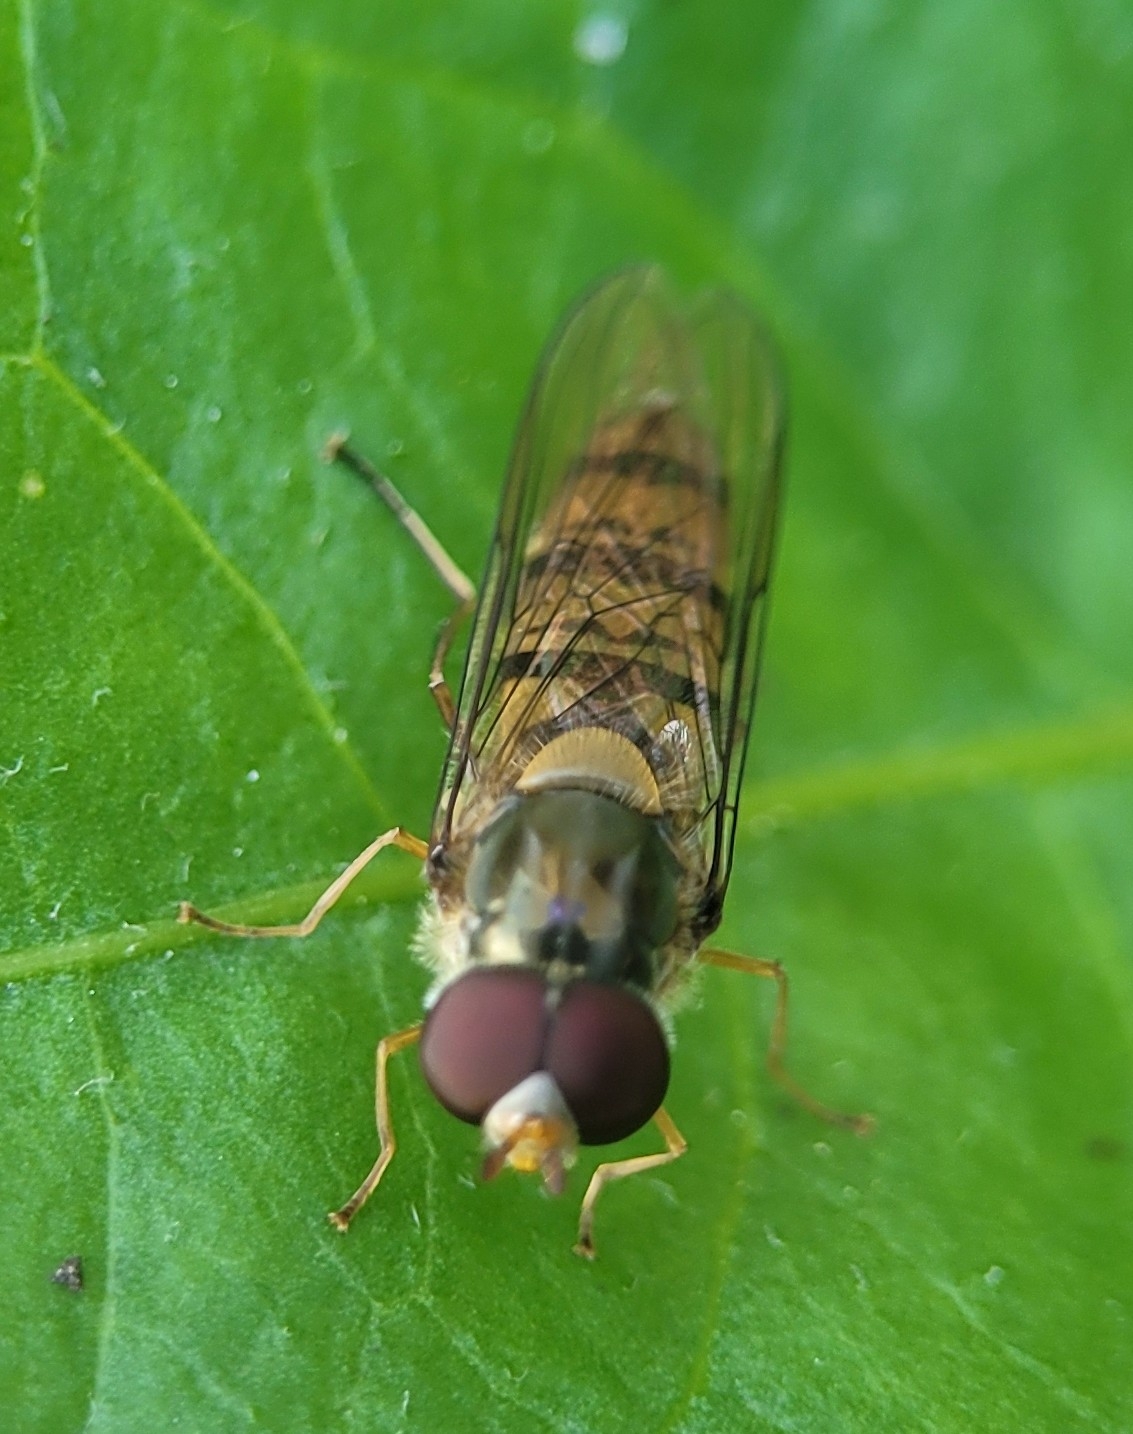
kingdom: Animalia
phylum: Arthropoda
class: Insecta
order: Diptera
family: Syrphidae
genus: Episyrphus
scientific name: Episyrphus balteatus
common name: Dobbeltbåndet svirreflue
